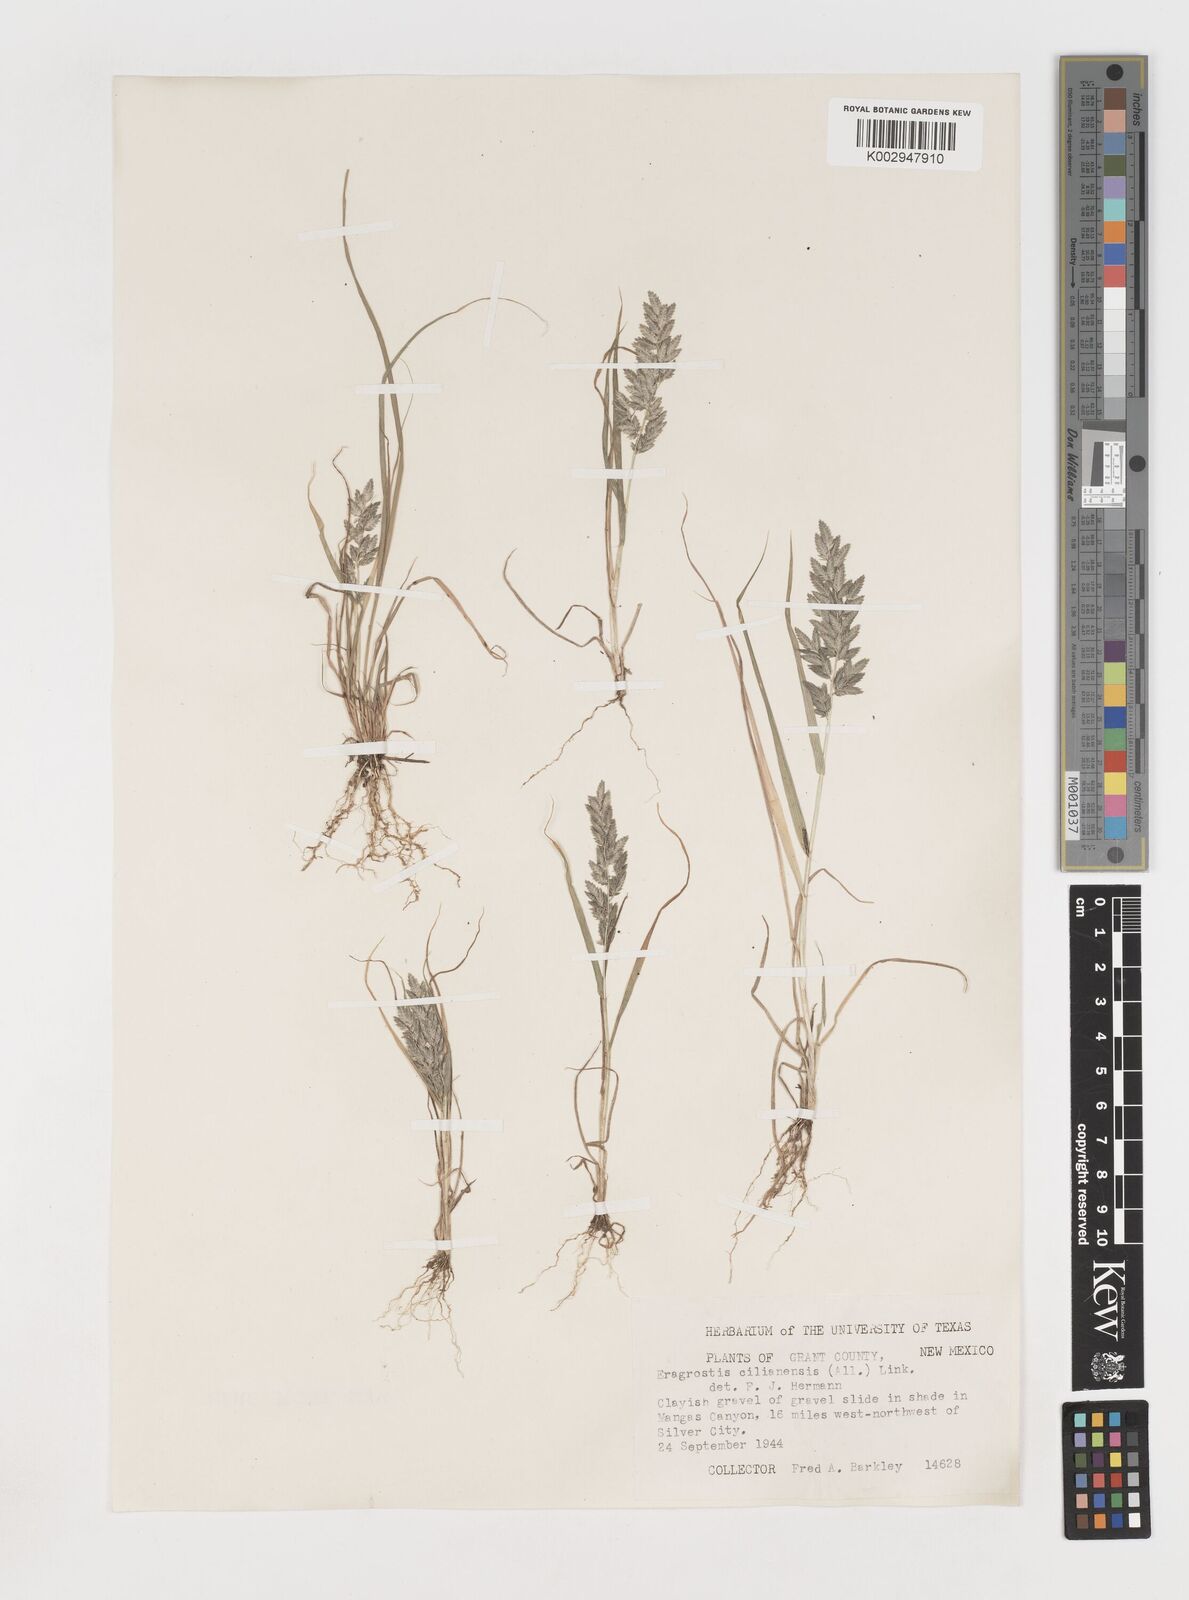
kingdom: Plantae
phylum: Tracheophyta
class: Liliopsida
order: Poales
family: Poaceae
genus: Eragrostis
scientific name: Eragrostis
